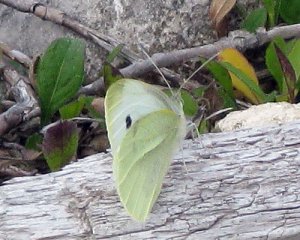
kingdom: Animalia
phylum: Arthropoda
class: Insecta
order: Lepidoptera
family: Pieridae
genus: Pieris
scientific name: Pieris rapae
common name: Cabbage White
